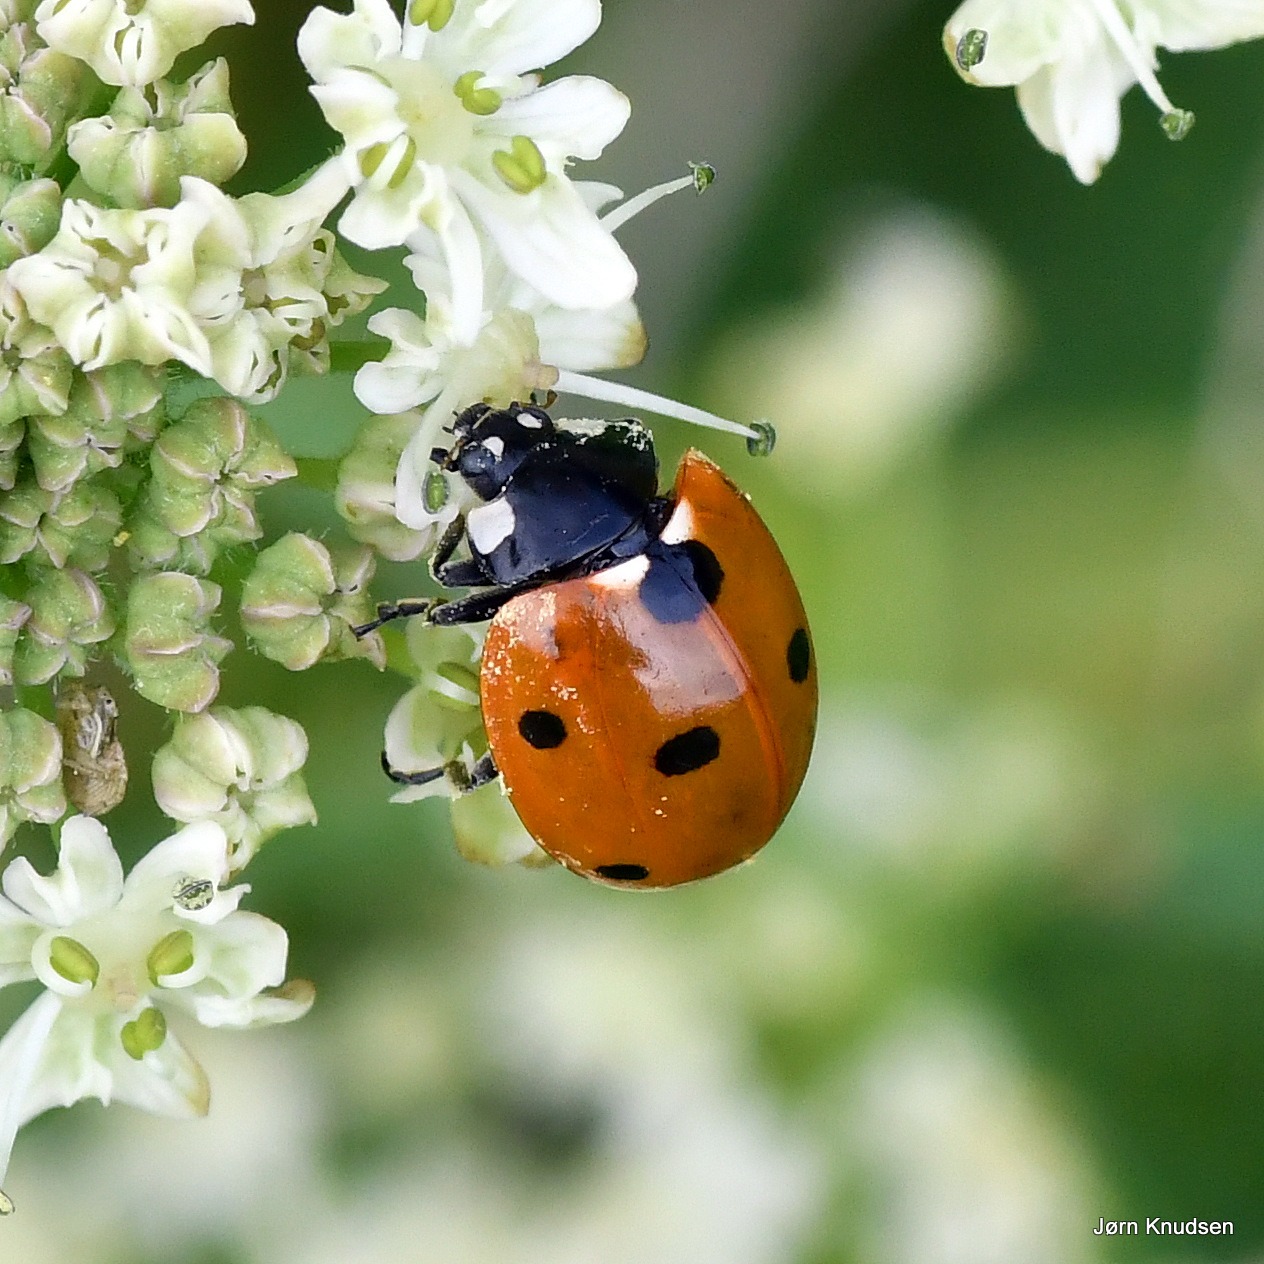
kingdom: Animalia
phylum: Arthropoda
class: Insecta
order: Coleoptera
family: Coccinellidae
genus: Coccinella
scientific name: Coccinella septempunctata
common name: Syvplettet mariehøne
